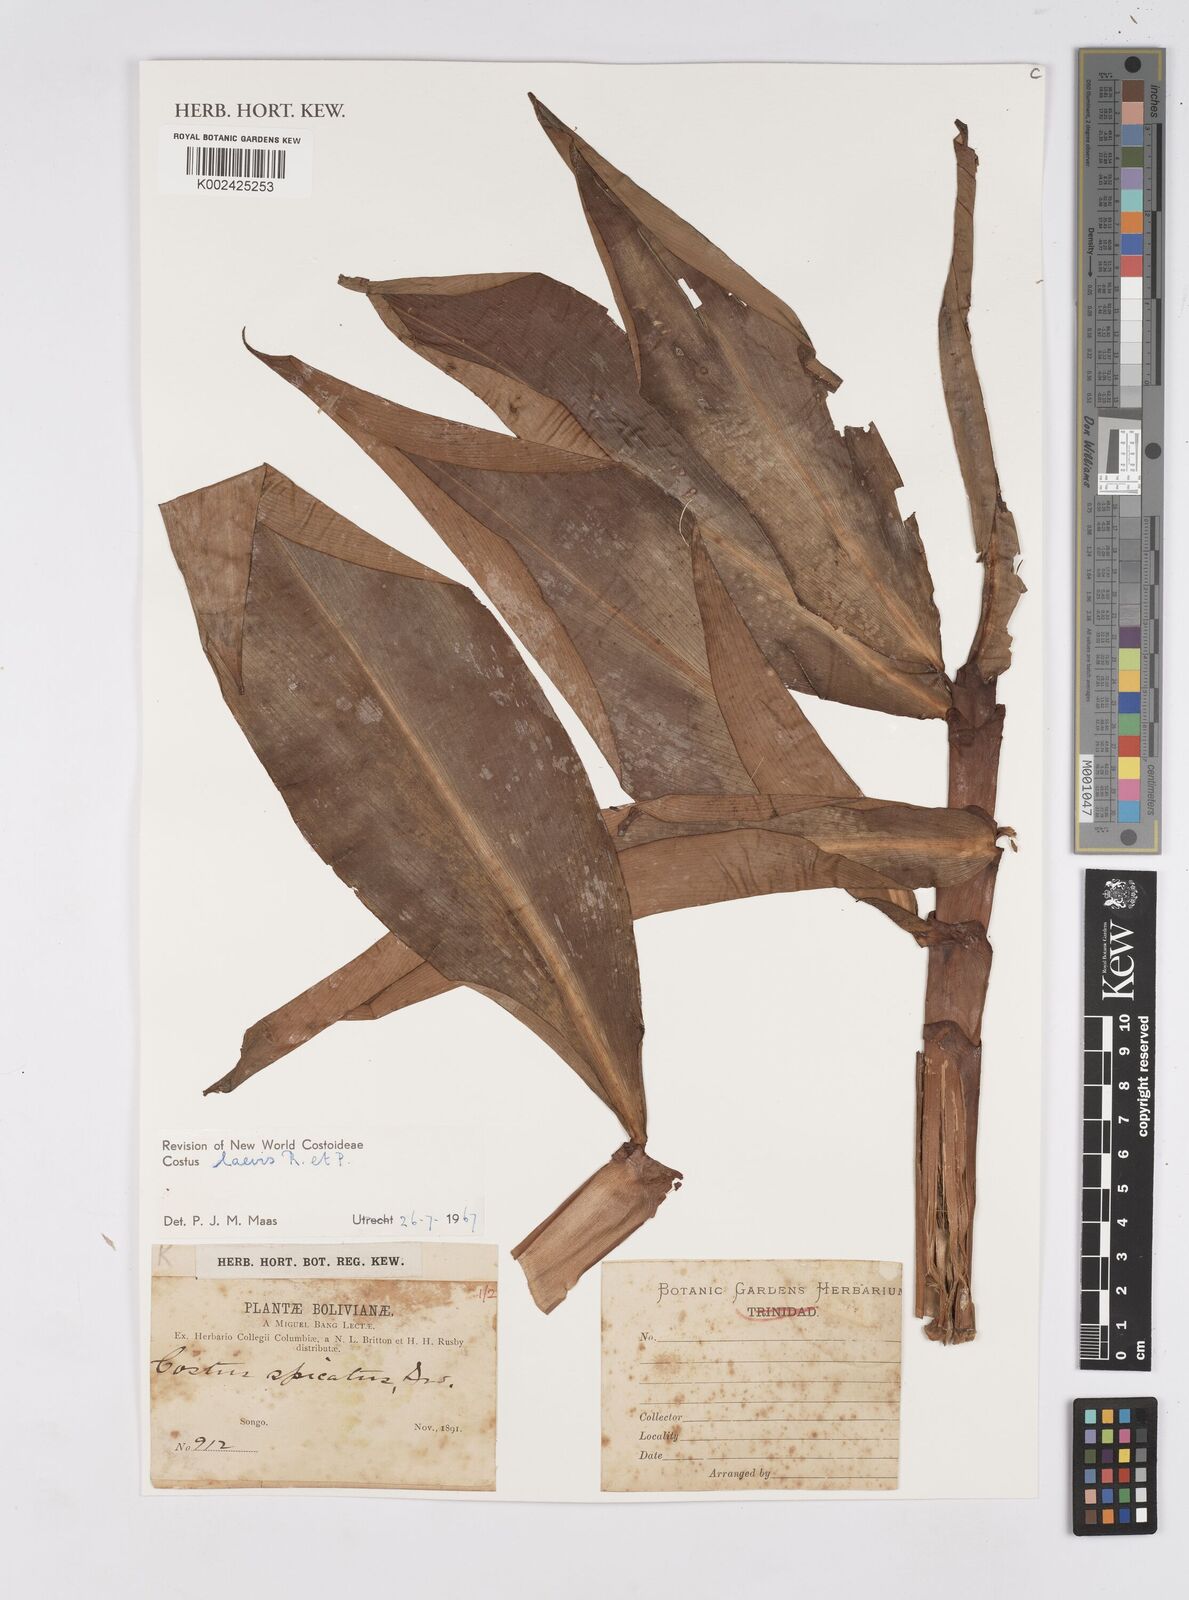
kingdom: Plantae
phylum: Tracheophyta
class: Liliopsida
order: Zingiberales
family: Costaceae
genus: Costus
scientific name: Costus laevis
